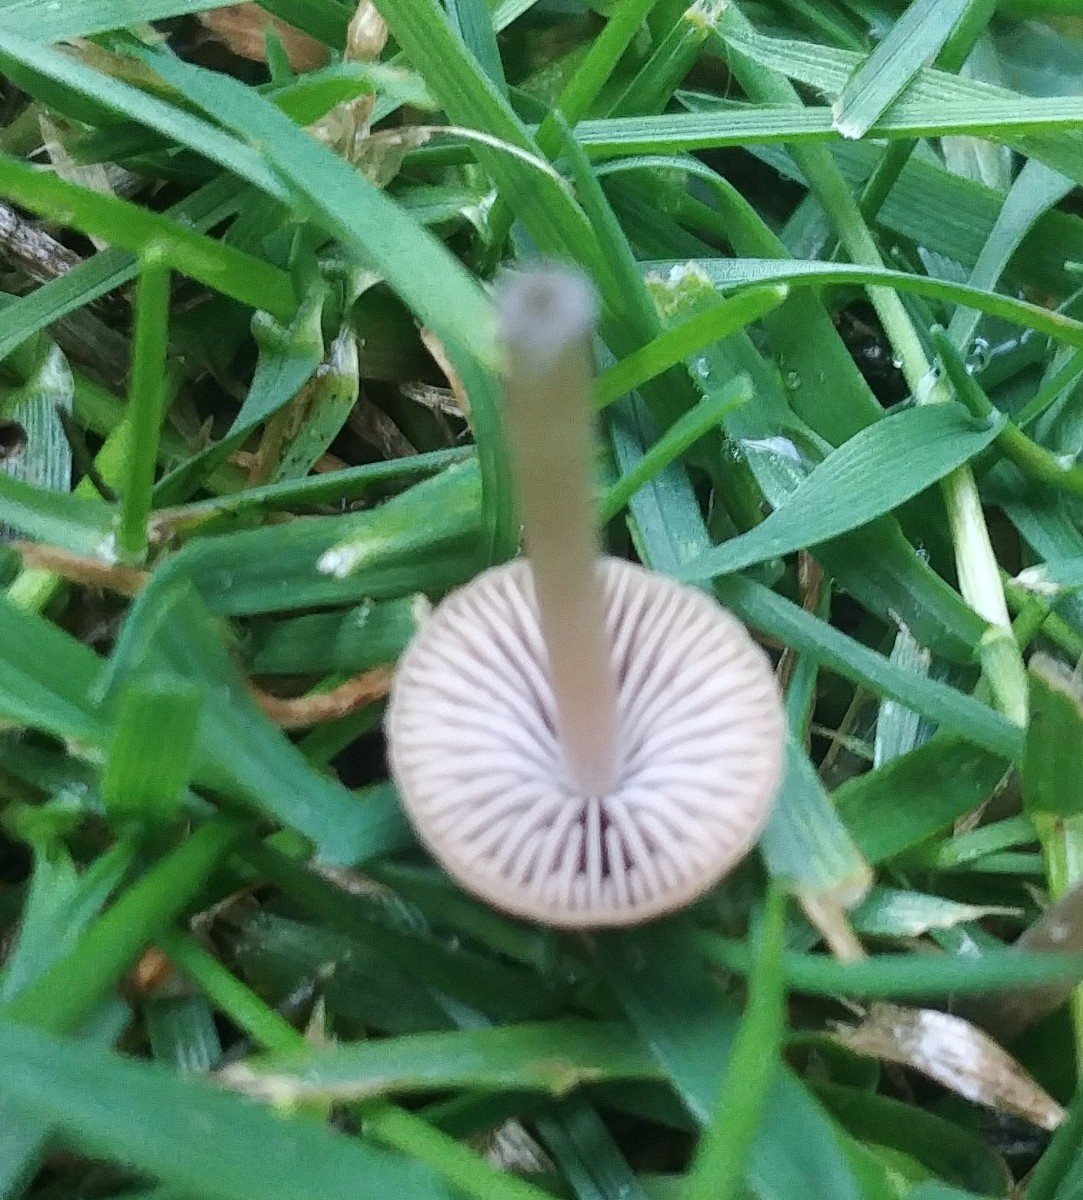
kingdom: Fungi
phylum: Basidiomycota
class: Agaricomycetes
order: Agaricales
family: Psathyrellaceae
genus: Psathyrella
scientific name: Psathyrella
